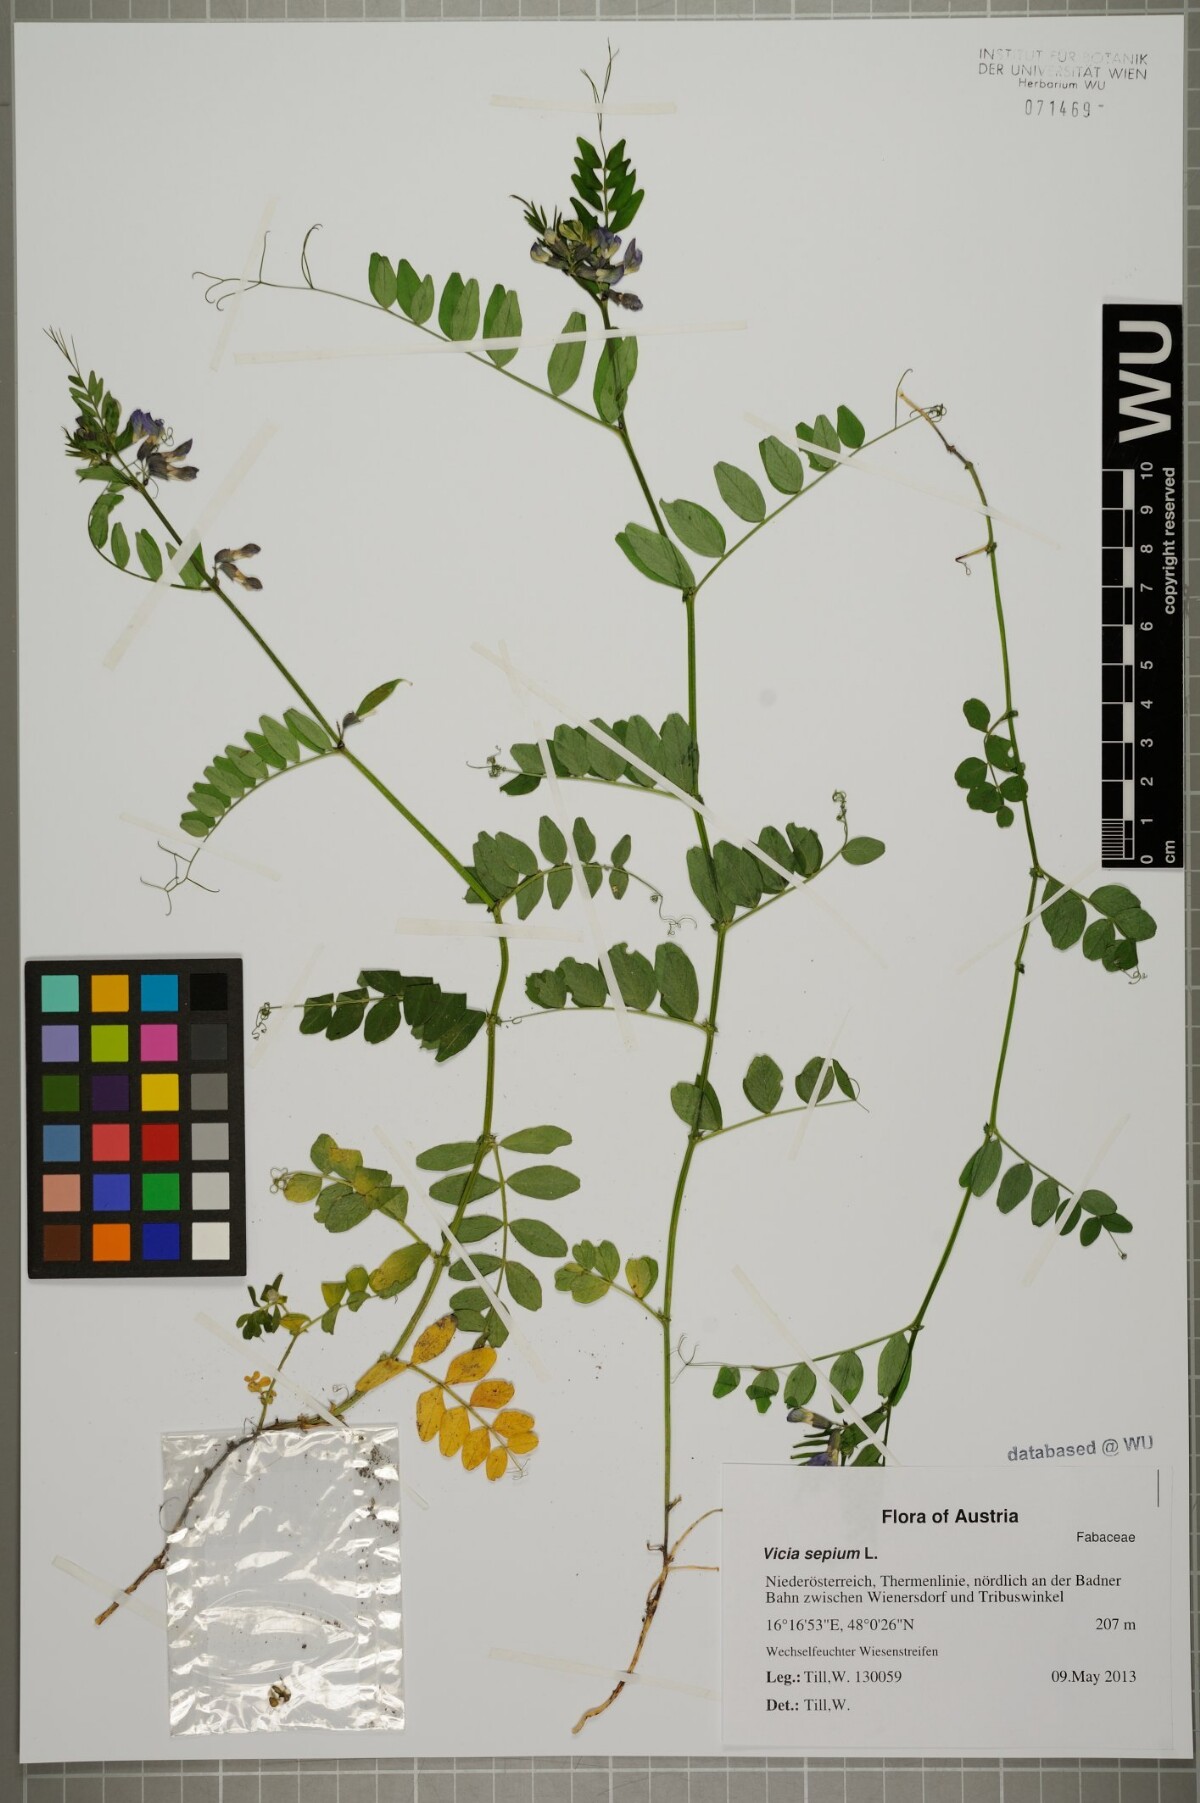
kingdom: Plantae
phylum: Tracheophyta
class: Magnoliopsida
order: Fabales
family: Fabaceae
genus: Vicia
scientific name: Vicia sepium
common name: Bush vetch
